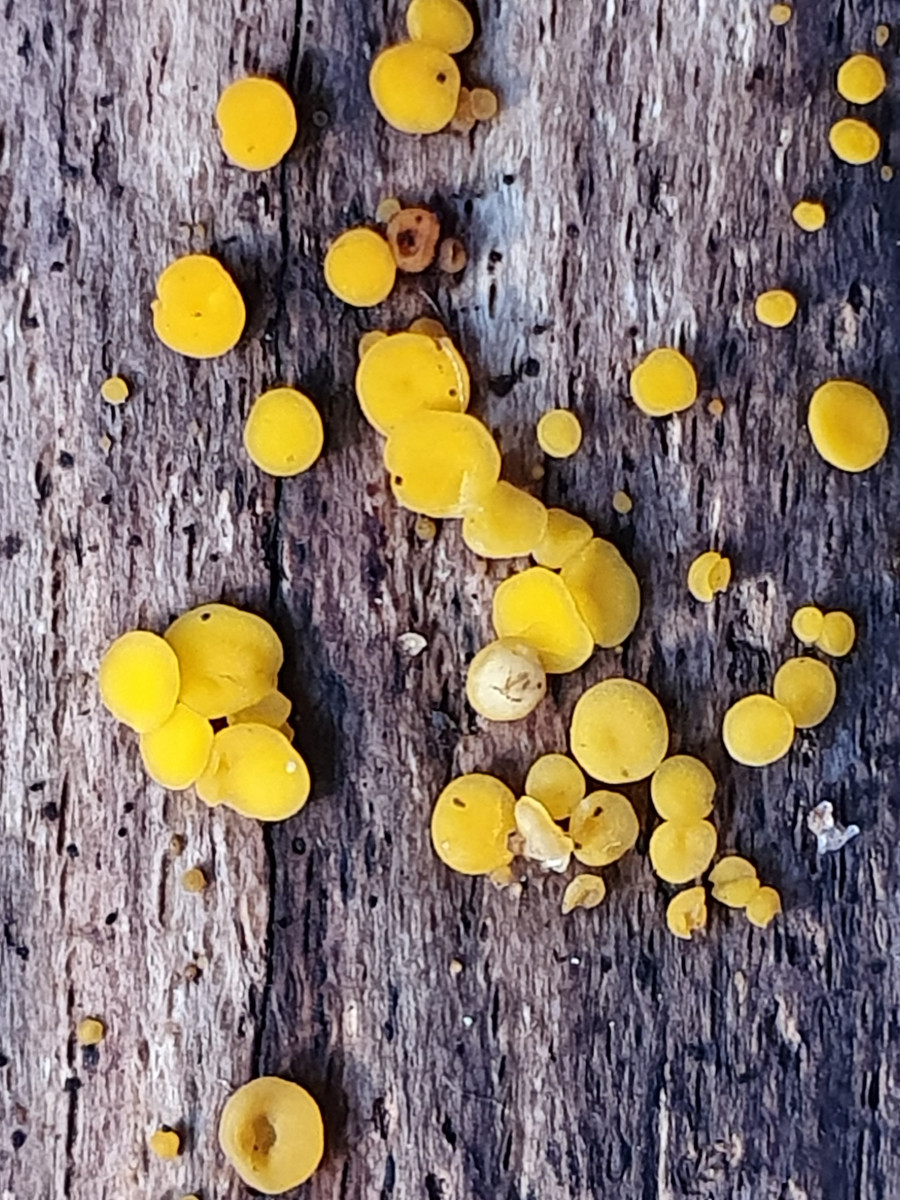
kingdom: Fungi
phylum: Ascomycota
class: Leotiomycetes
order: Helotiales
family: Pezizellaceae
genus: Calycina
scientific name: Calycina citrina
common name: almindelig gulskive
